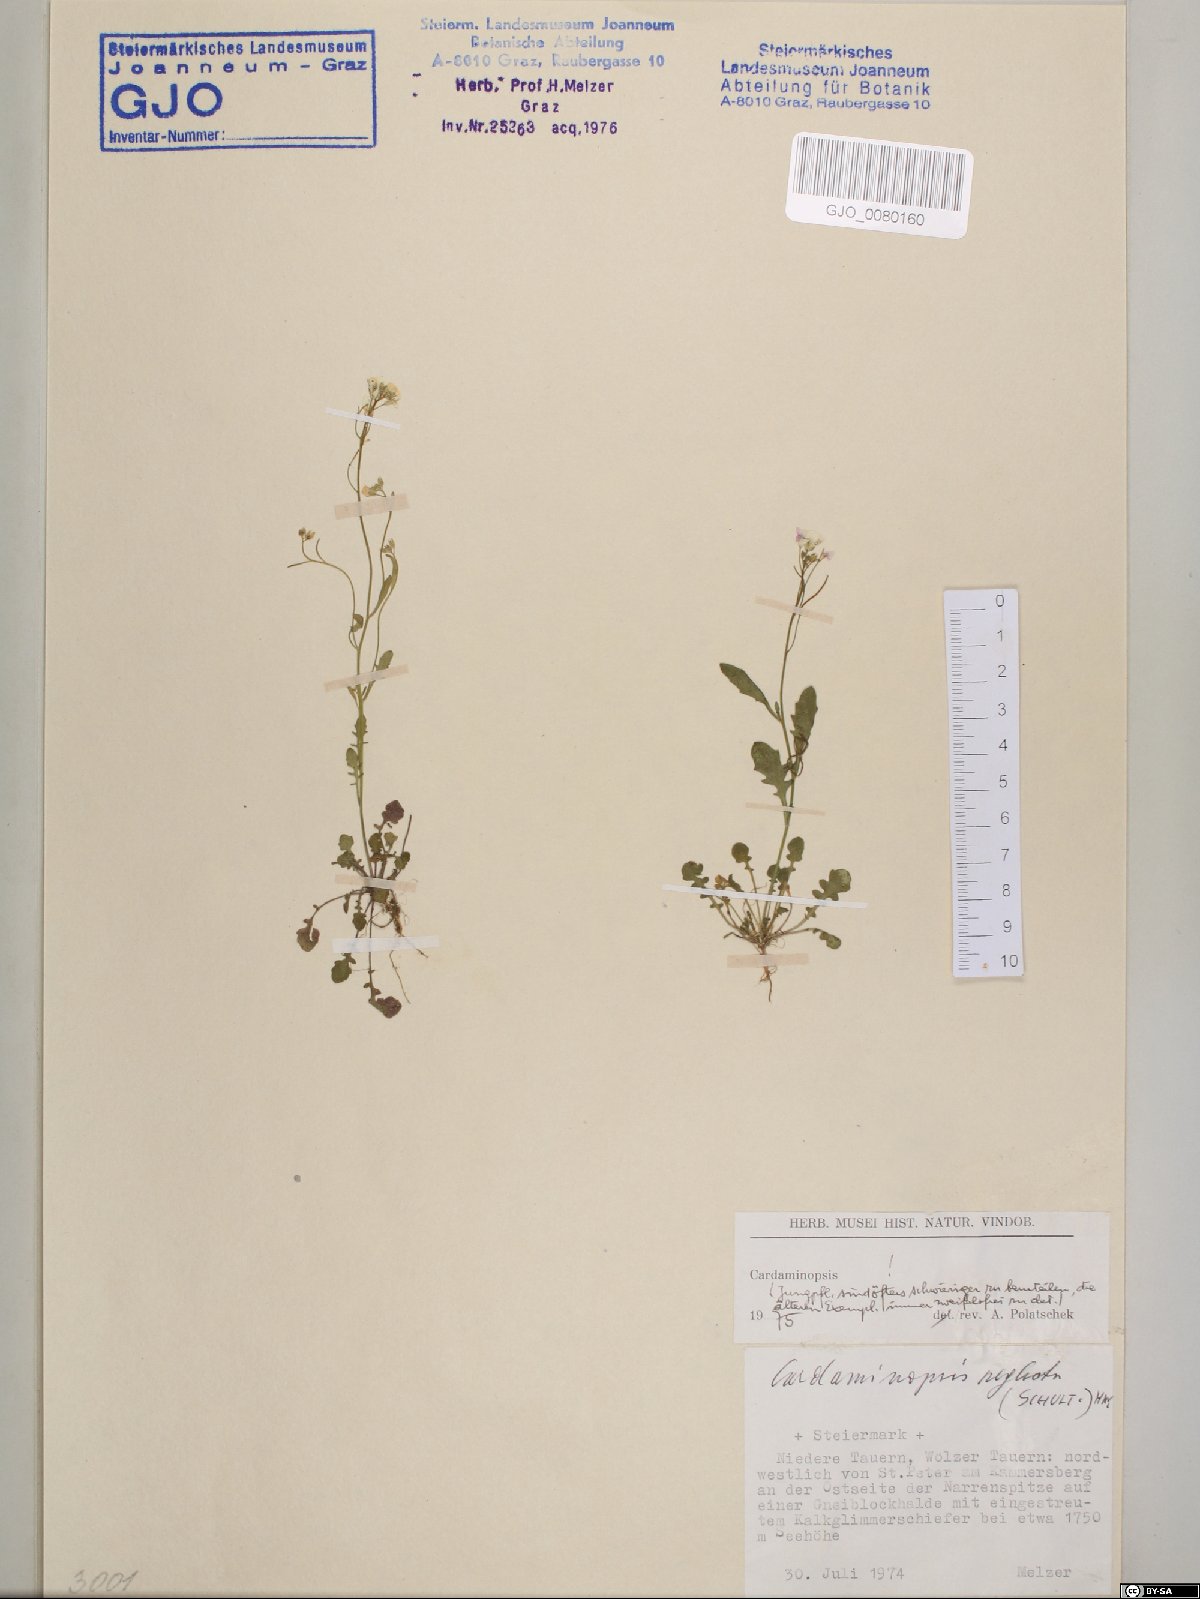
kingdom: Plantae
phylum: Tracheophyta
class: Magnoliopsida
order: Brassicales
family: Brassicaceae
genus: Arabidopsis
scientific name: Arabidopsis neglecta
